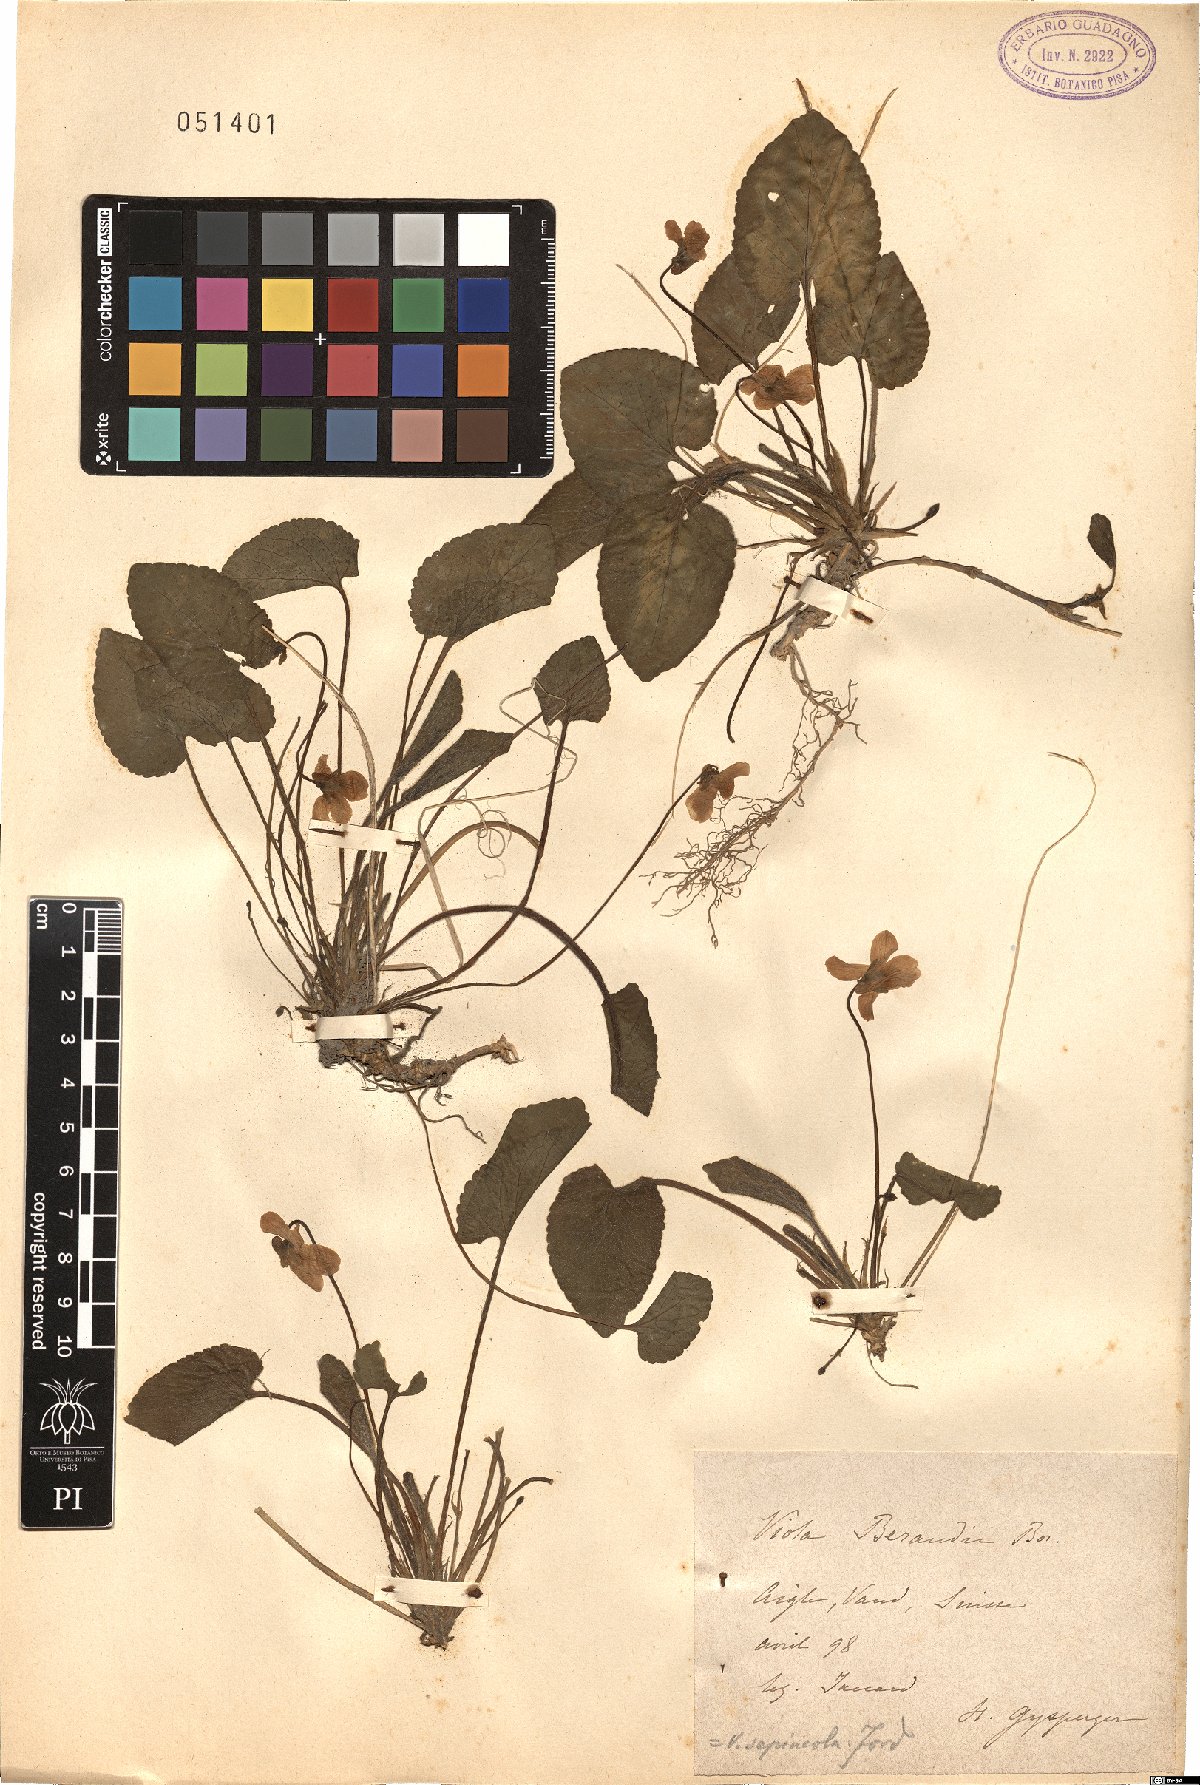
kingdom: Plantae
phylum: Tracheophyta
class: Magnoliopsida
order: Malpighiales
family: Violaceae
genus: Viola
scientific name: Viola suavis
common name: Russian violet
